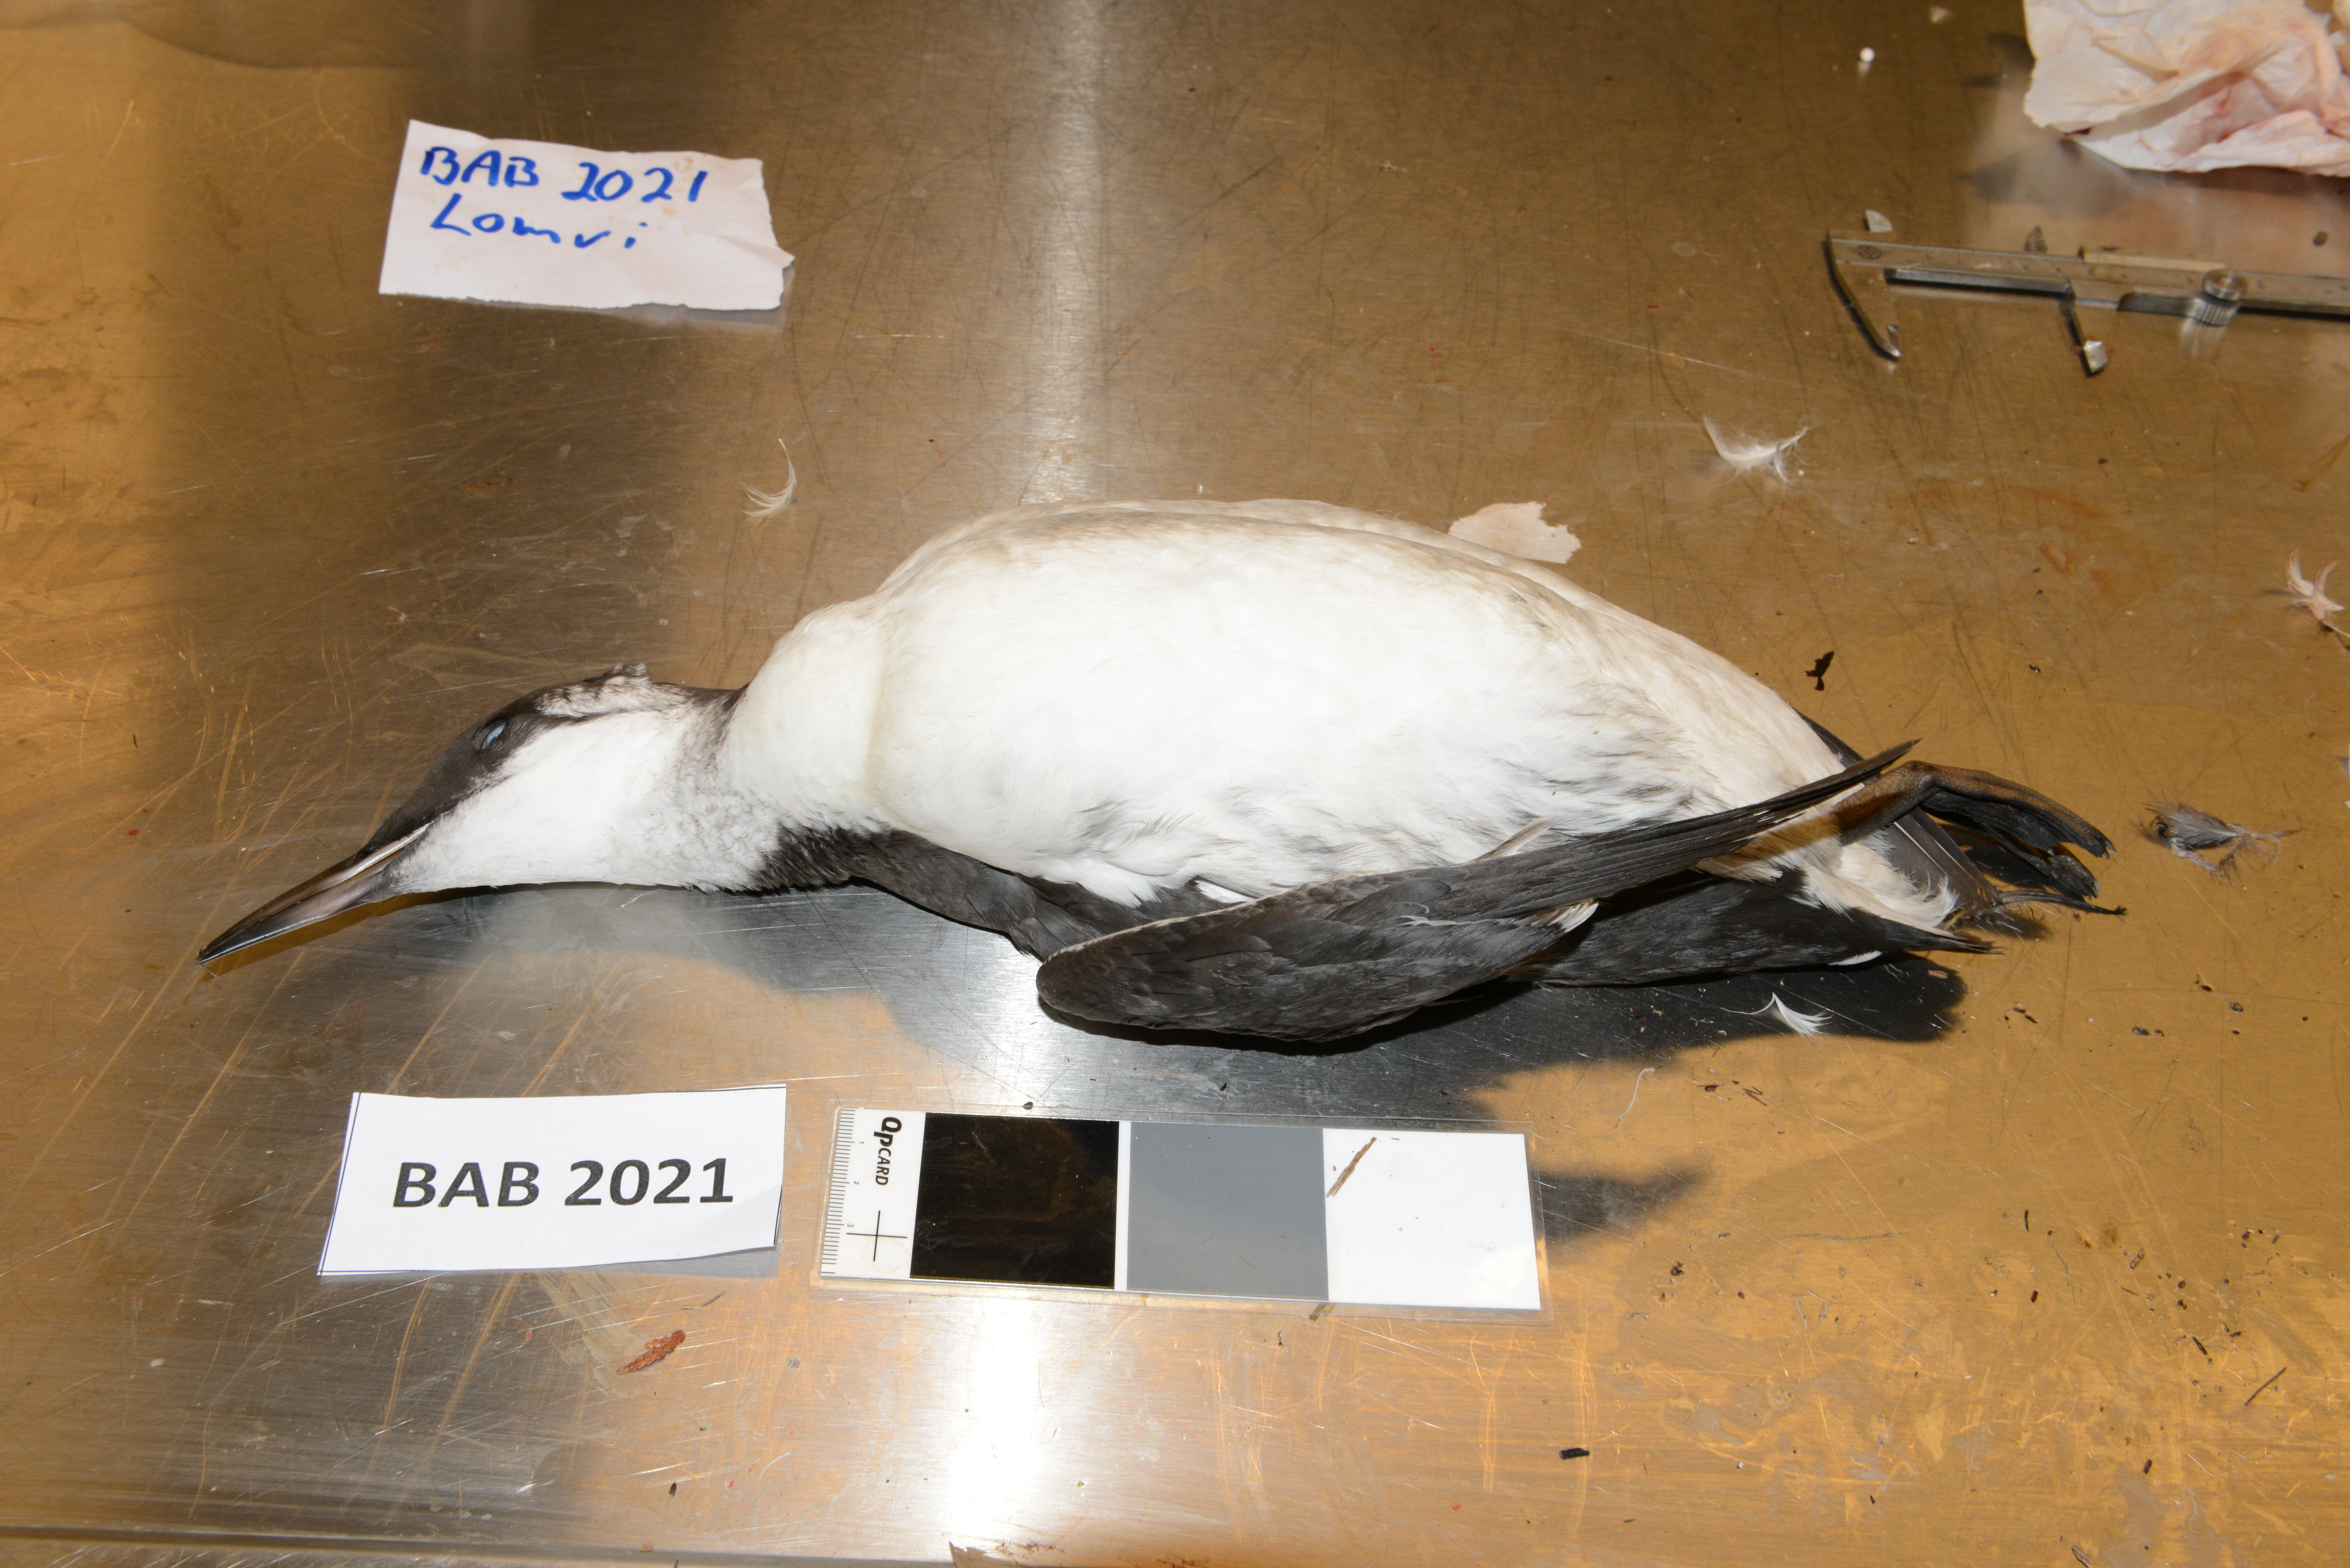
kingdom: Animalia
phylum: Chordata
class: Aves
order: Charadriiformes
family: Alcidae
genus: Uria
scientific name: Uria aalge
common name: Common murre
